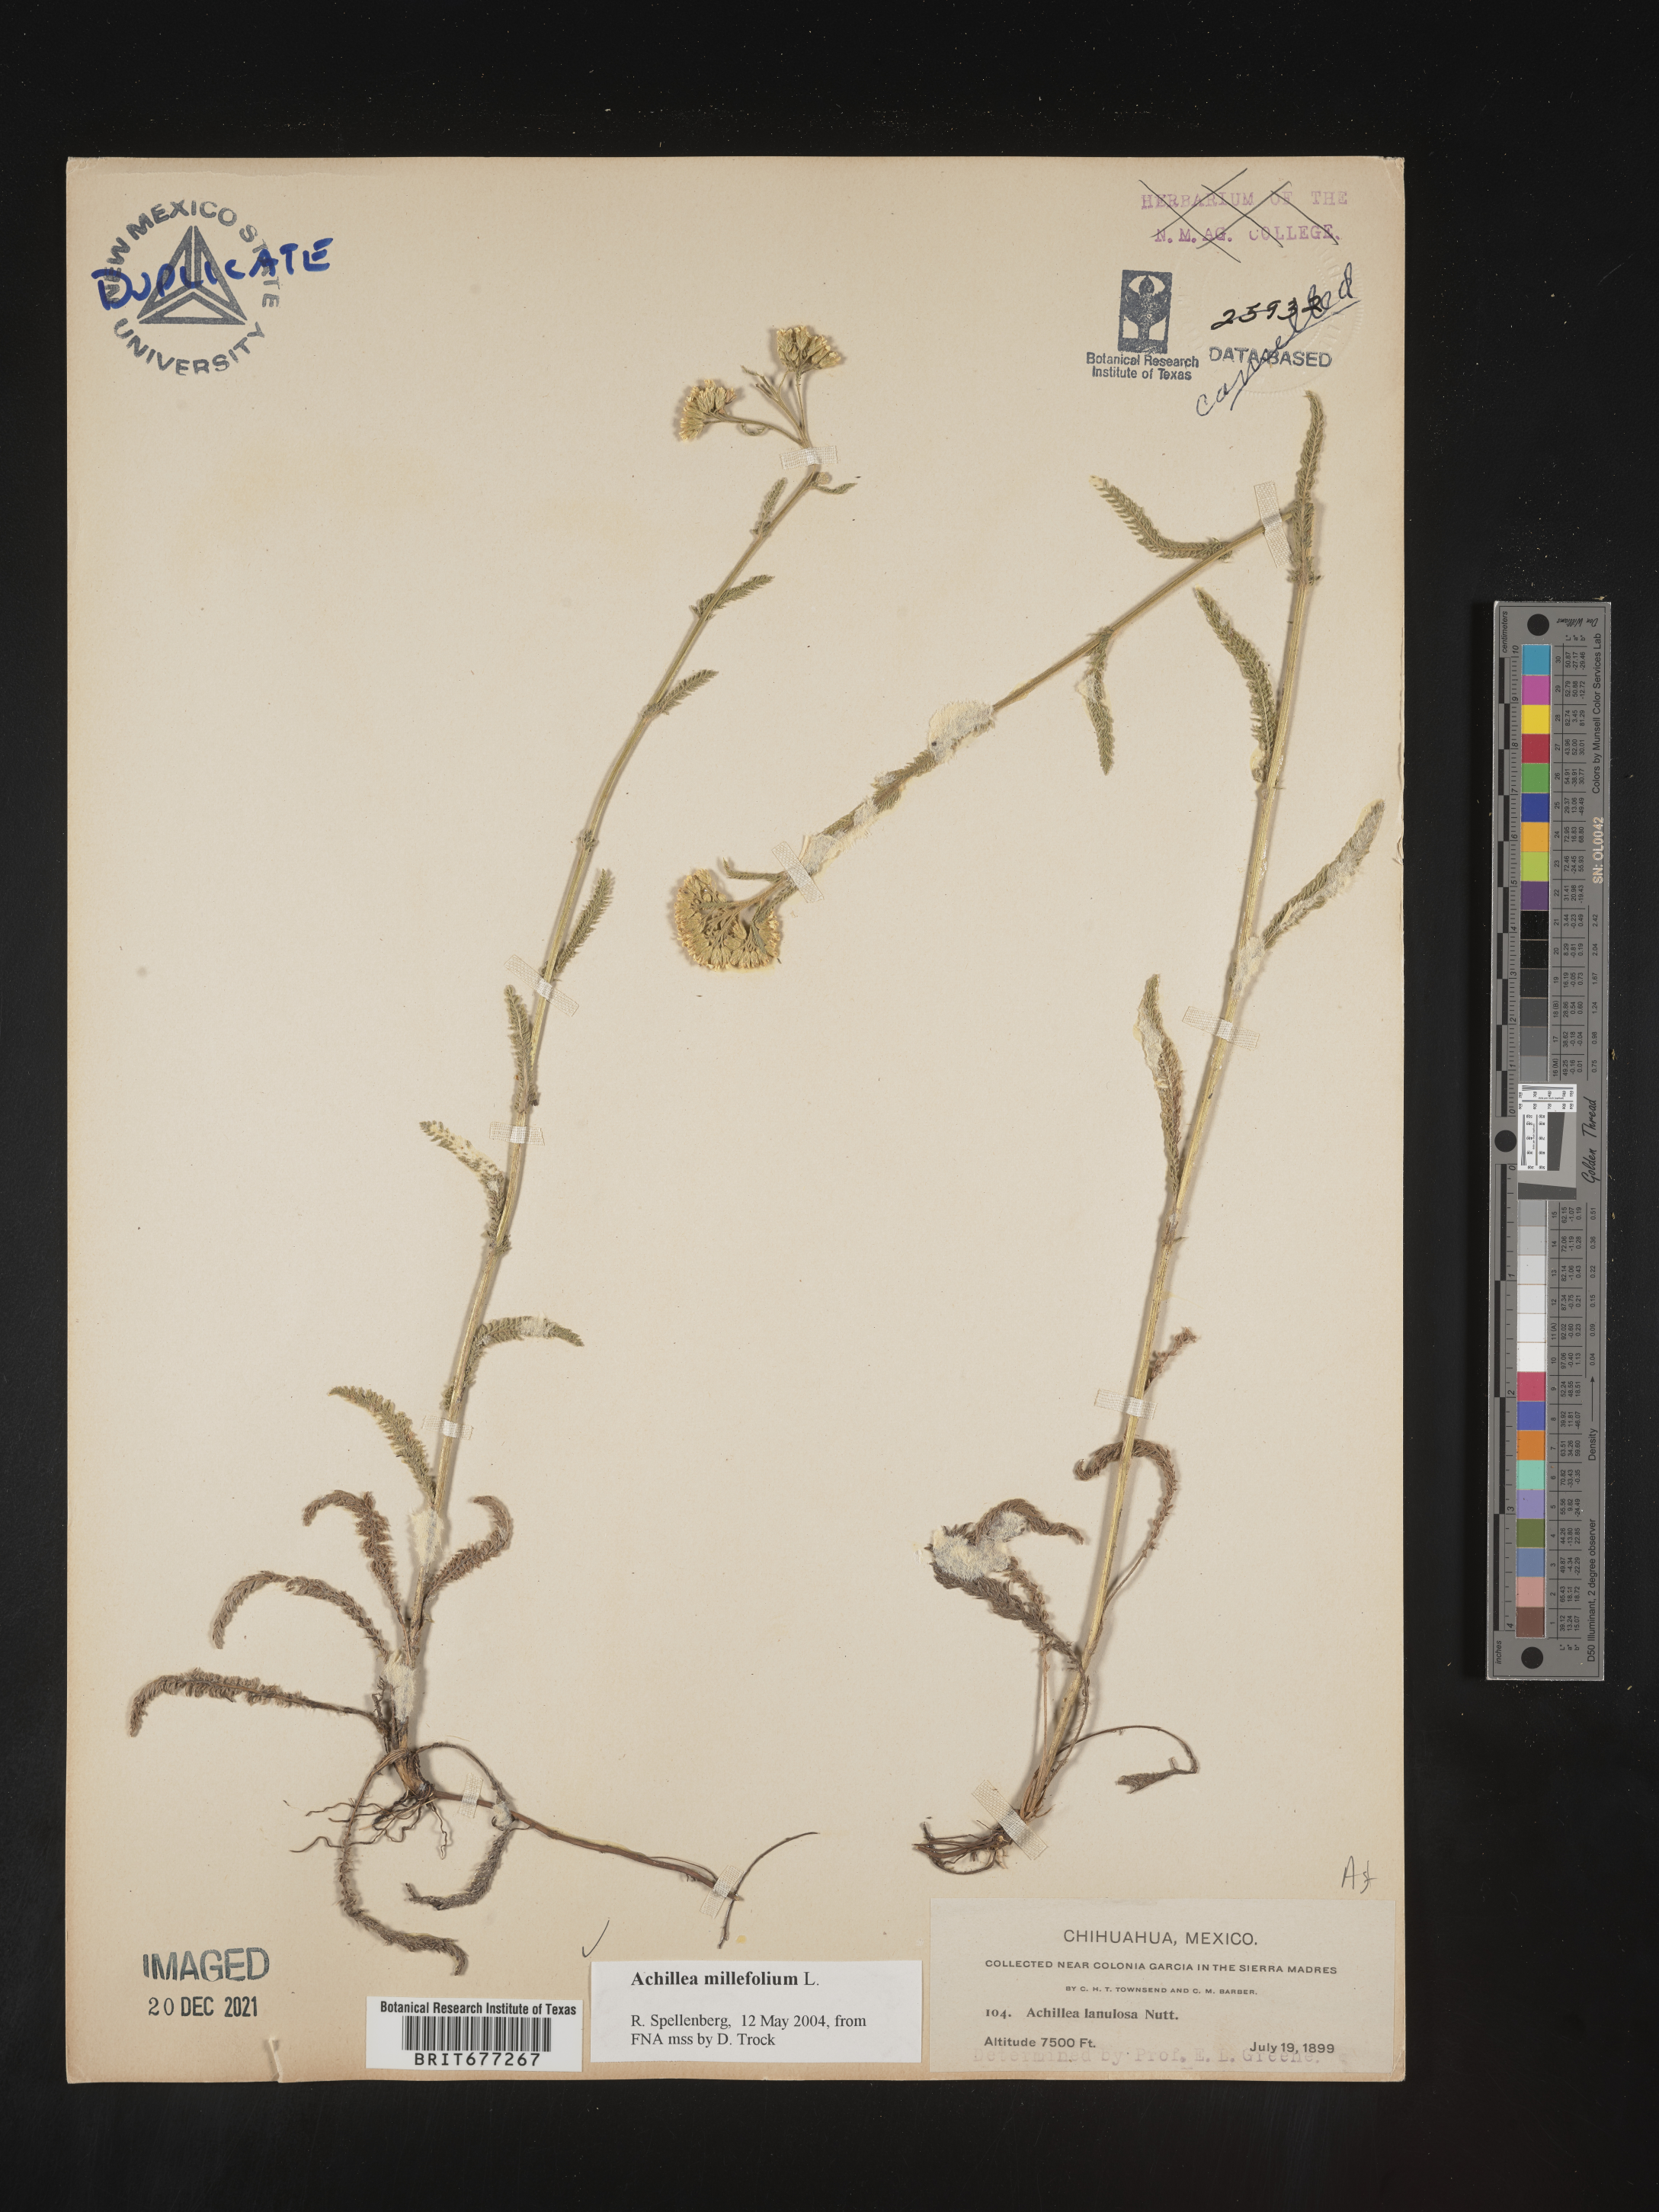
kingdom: Plantae
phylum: Tracheophyta
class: Magnoliopsida
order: Asterales
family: Asteraceae
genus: Achillea
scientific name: Achillea
